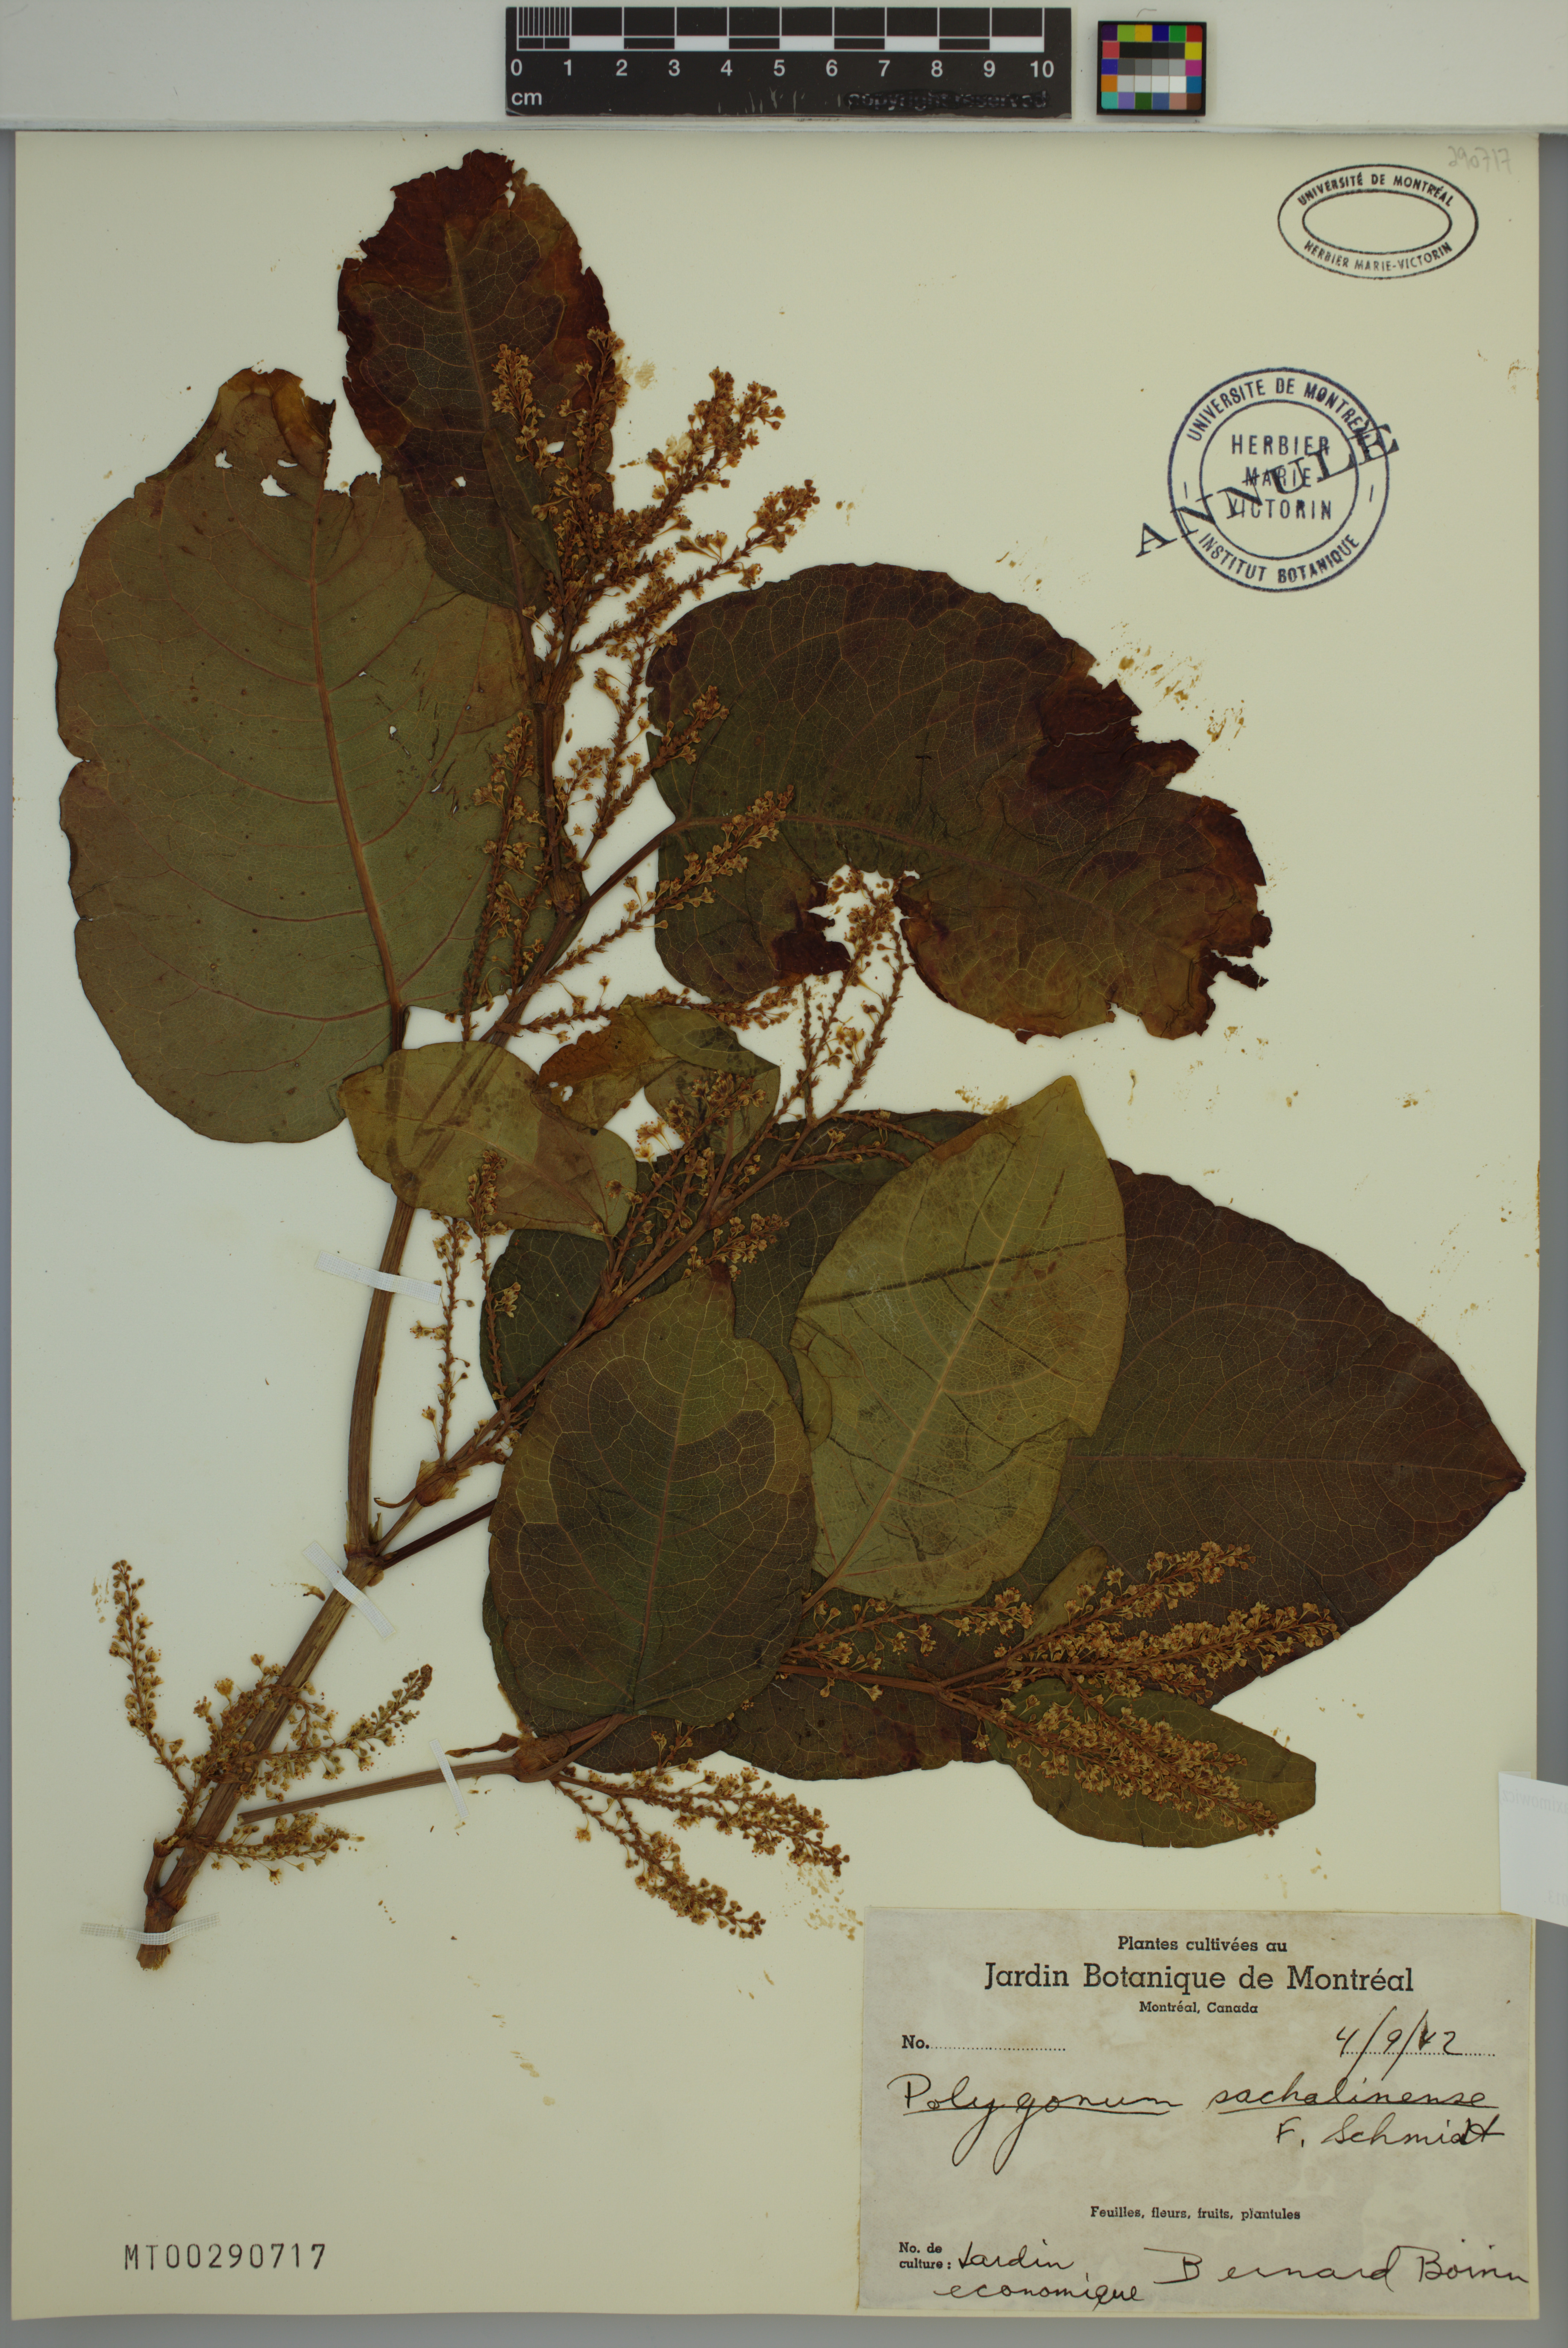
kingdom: Plantae
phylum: Tracheophyta
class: Magnoliopsida
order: Caryophyllales
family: Polygonaceae
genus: Reynoutria
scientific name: Reynoutria sachalinensis
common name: Giant knotweed
